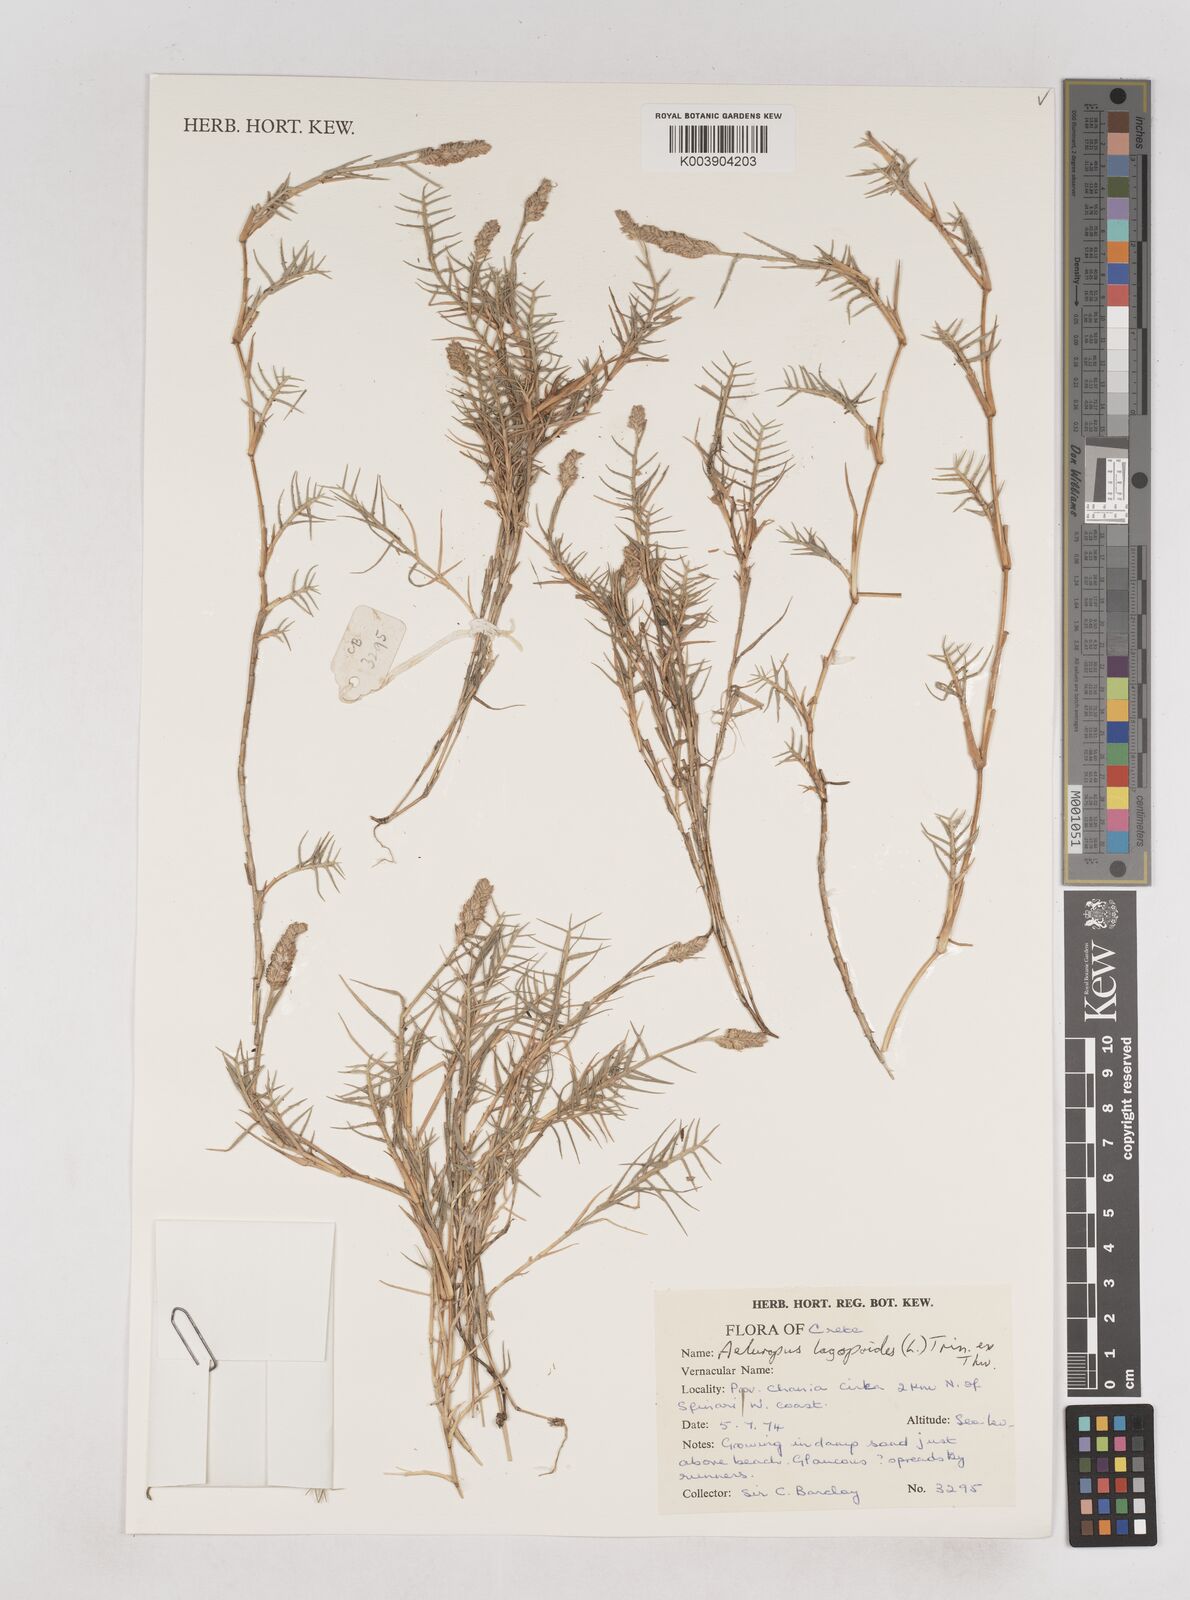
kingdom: Plantae
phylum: Tracheophyta
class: Liliopsida
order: Poales
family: Poaceae
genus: Aeluropus
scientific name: Aeluropus lagopoides
